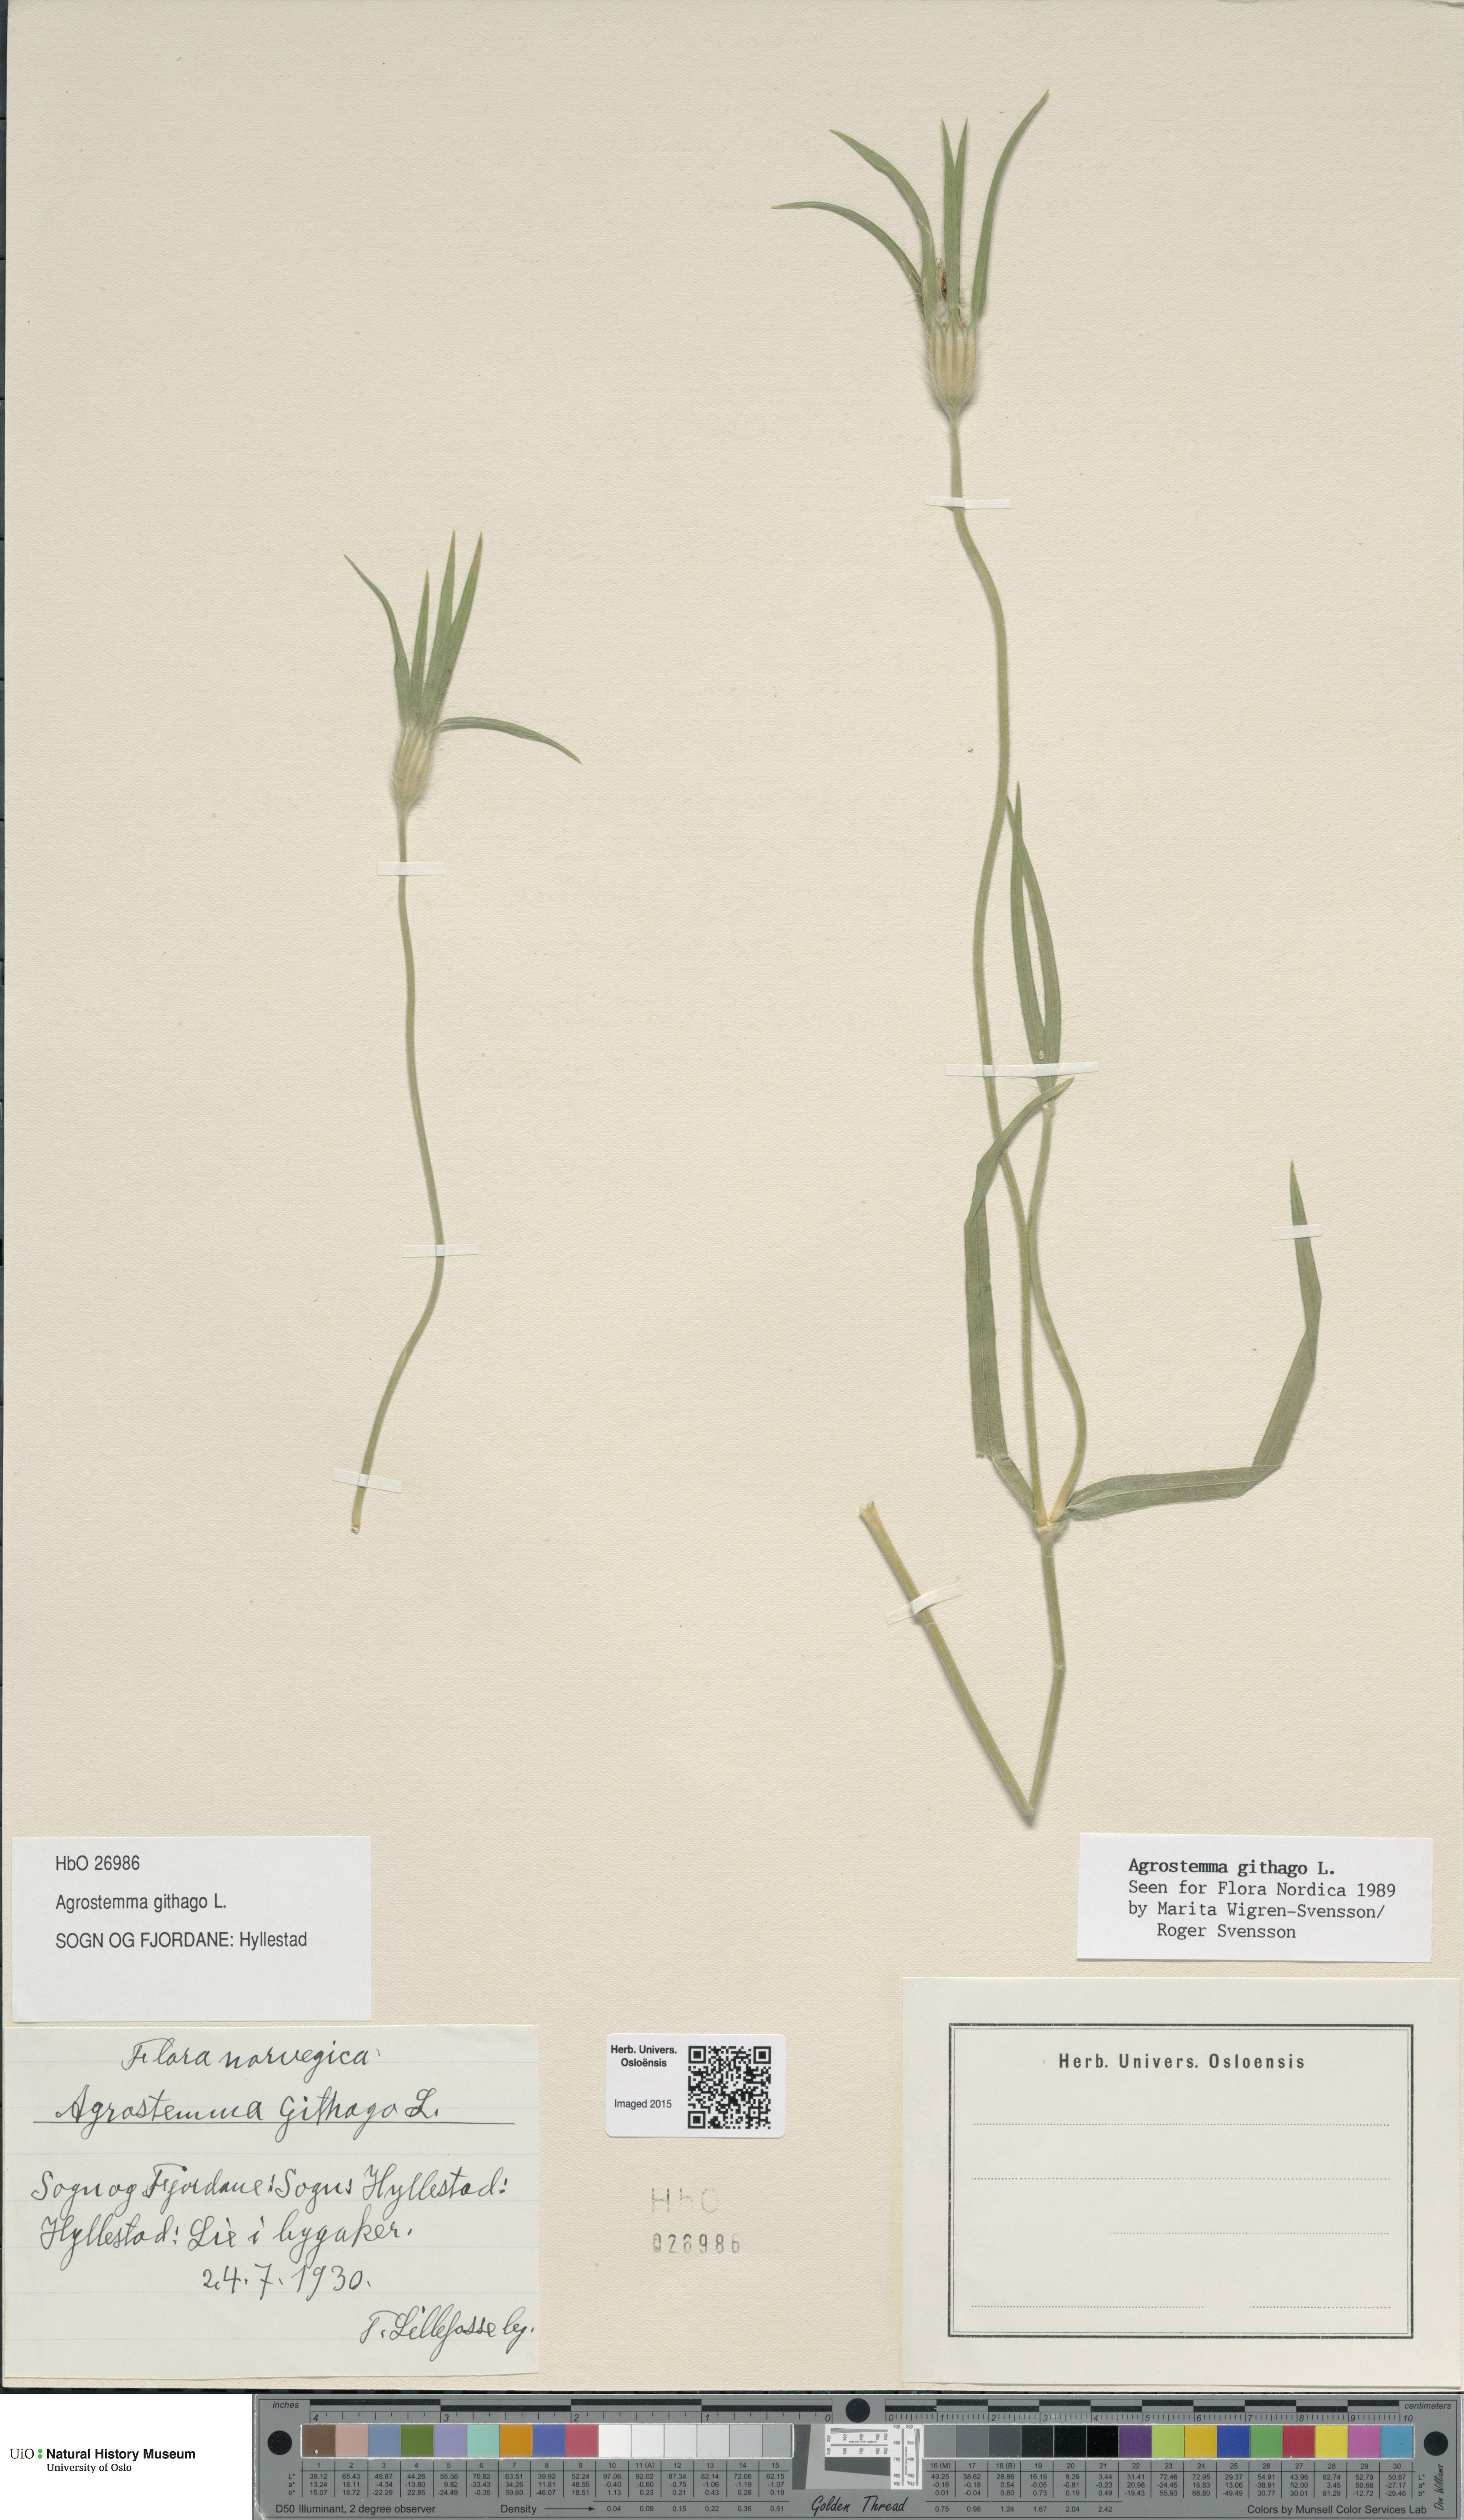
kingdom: Plantae
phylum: Tracheophyta
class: Magnoliopsida
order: Caryophyllales
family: Caryophyllaceae
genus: Agrostemma
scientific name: Agrostemma githago
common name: Common corncockle
